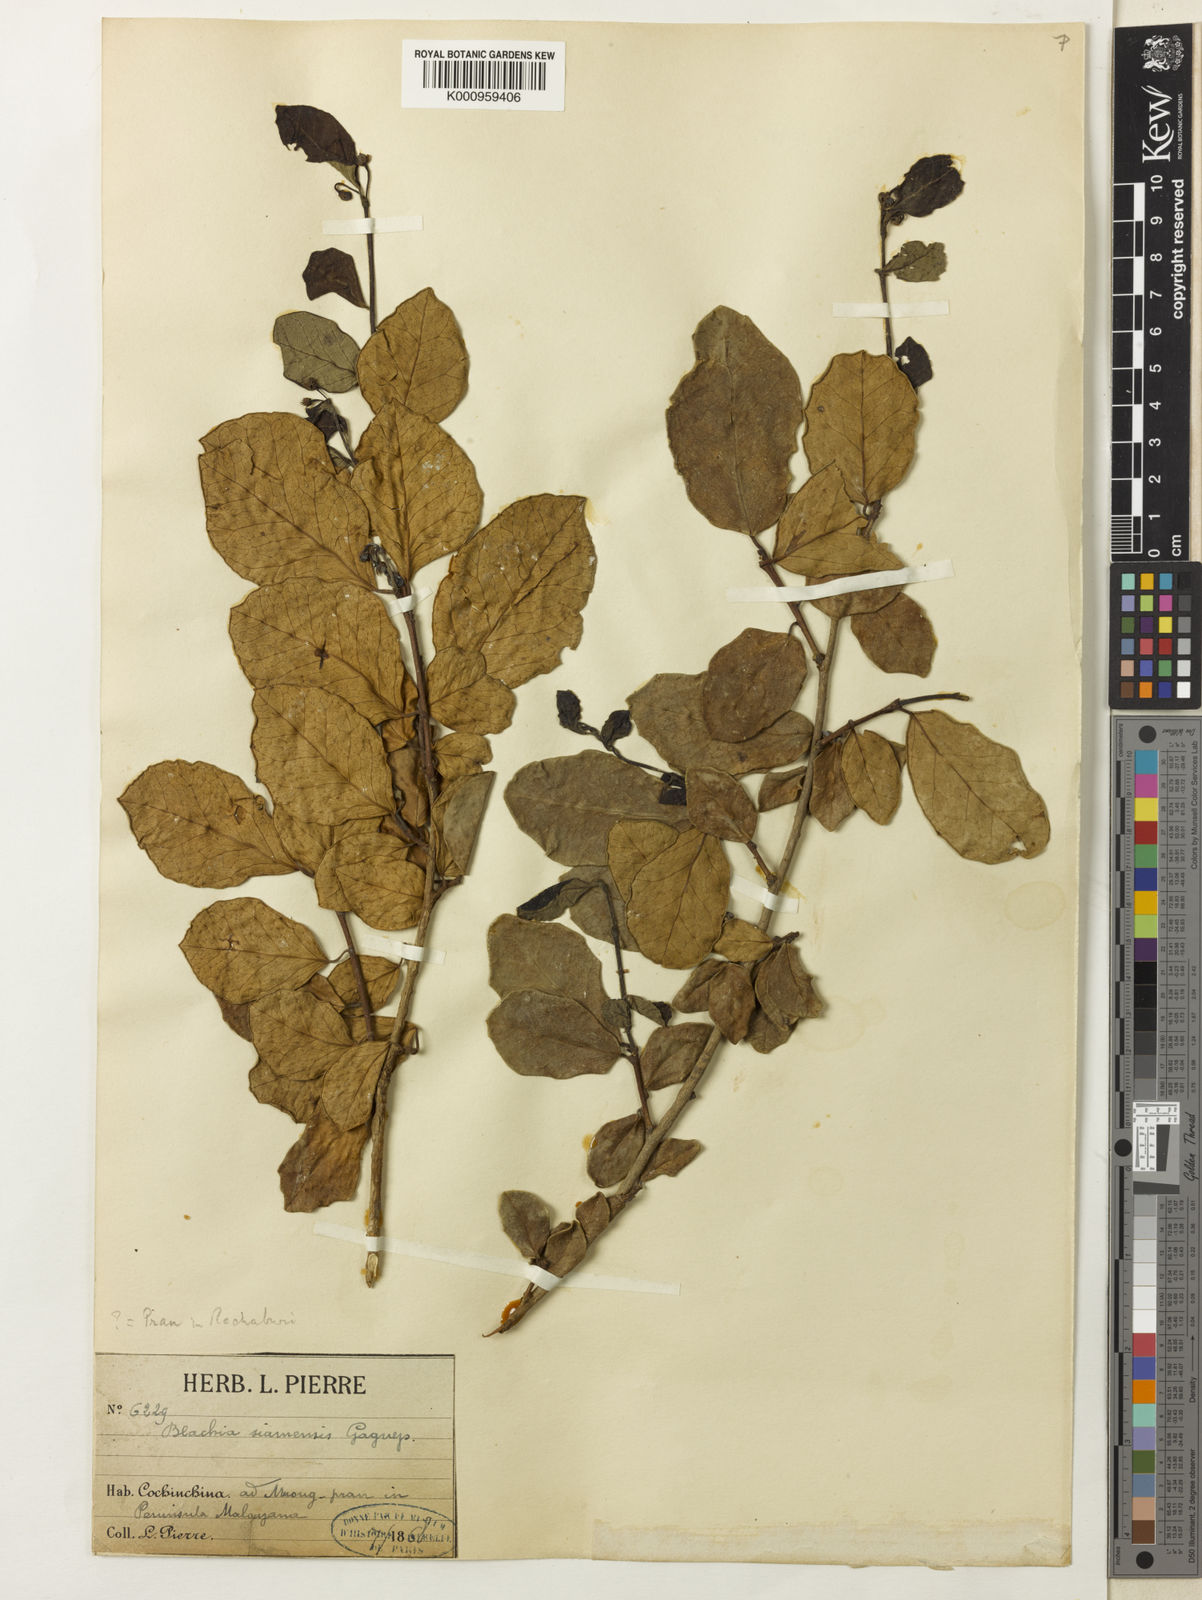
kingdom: Plantae
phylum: Tracheophyta
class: Magnoliopsida
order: Malpighiales
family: Euphorbiaceae
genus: Blachia
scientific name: Blachia siamensis
